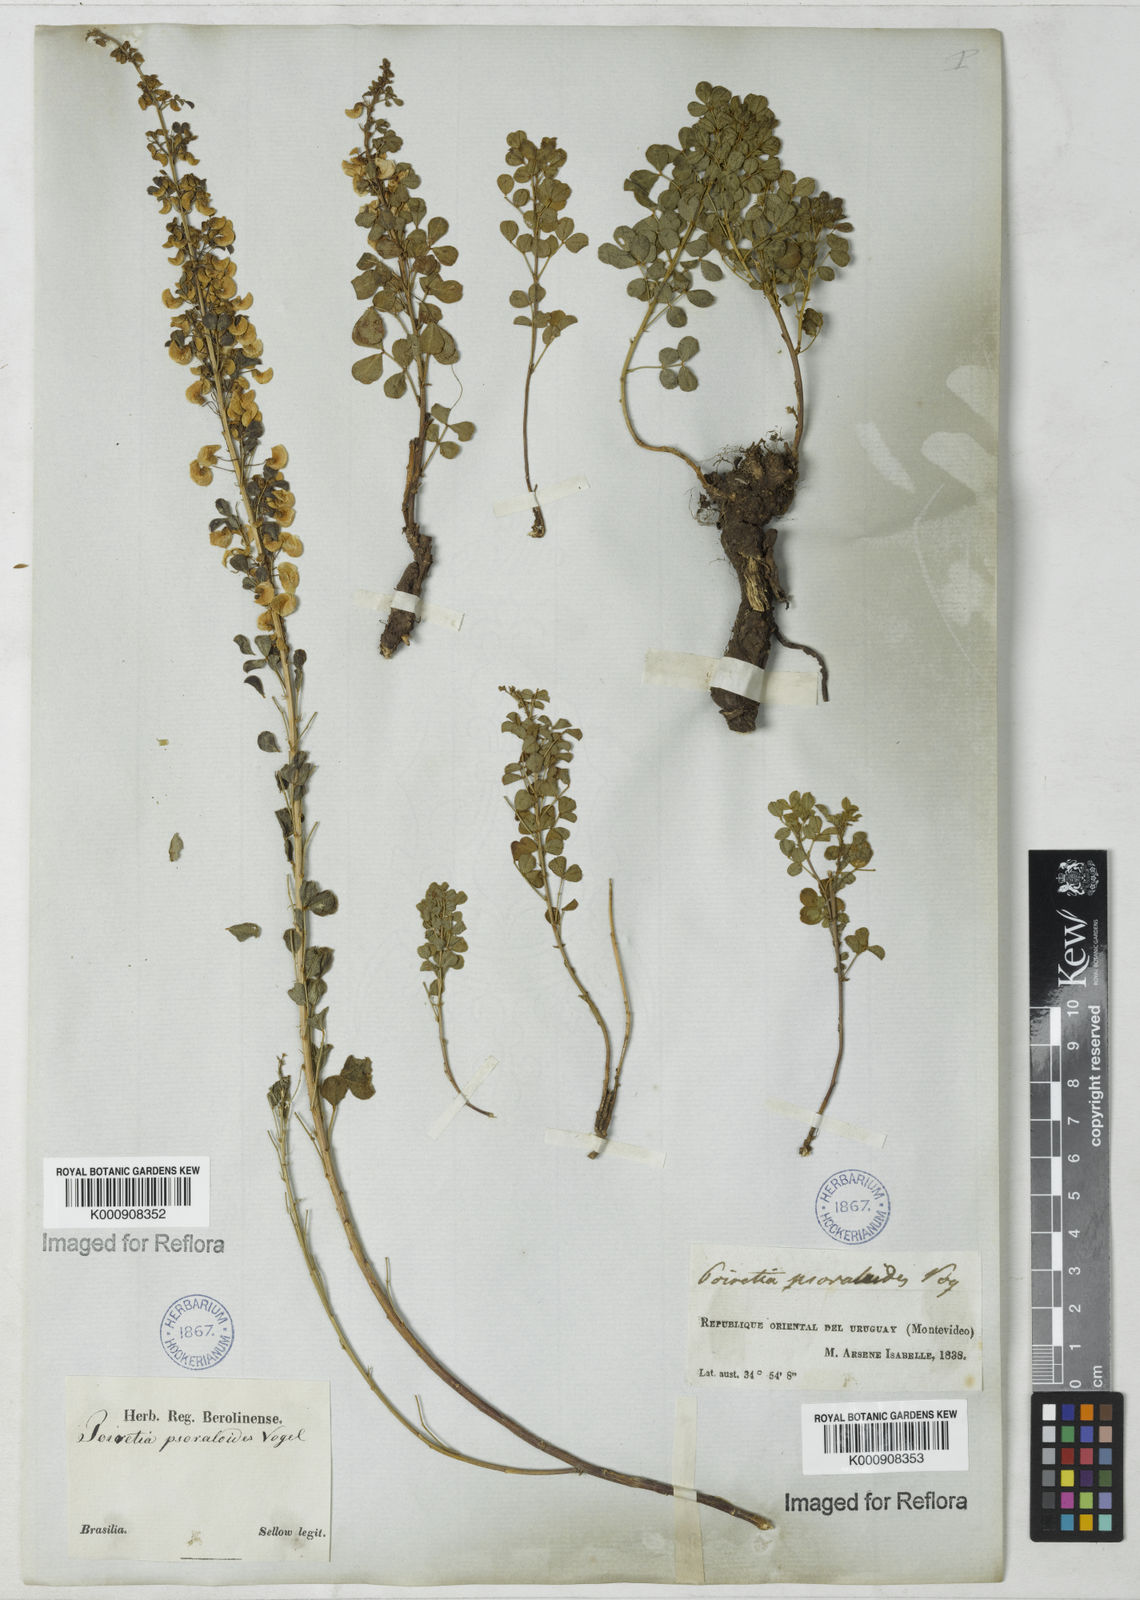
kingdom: Plantae
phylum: Tracheophyta
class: Magnoliopsida
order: Fabales
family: Fabaceae
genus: Poiretia
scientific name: Poiretia
